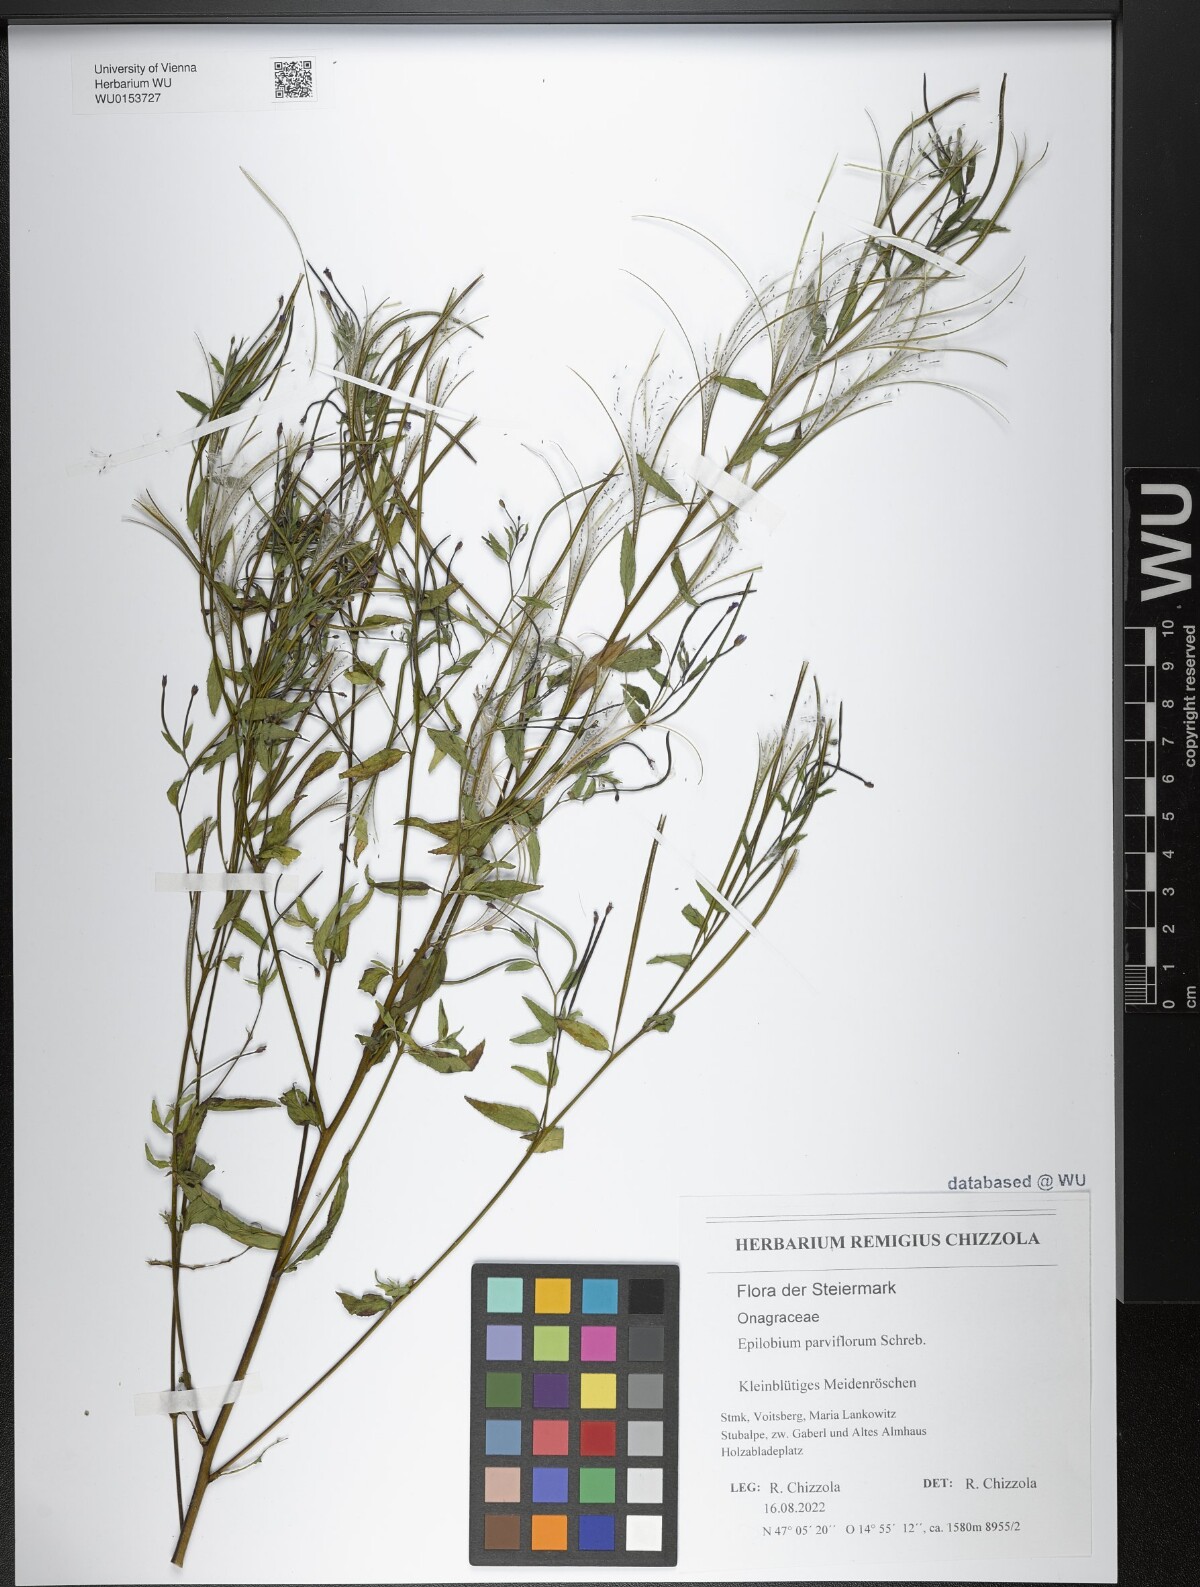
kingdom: Plantae
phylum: Tracheophyta
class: Magnoliopsida
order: Myrtales
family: Onagraceae
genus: Epilobium
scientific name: Epilobium parviflorum
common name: Hoary willowherb
